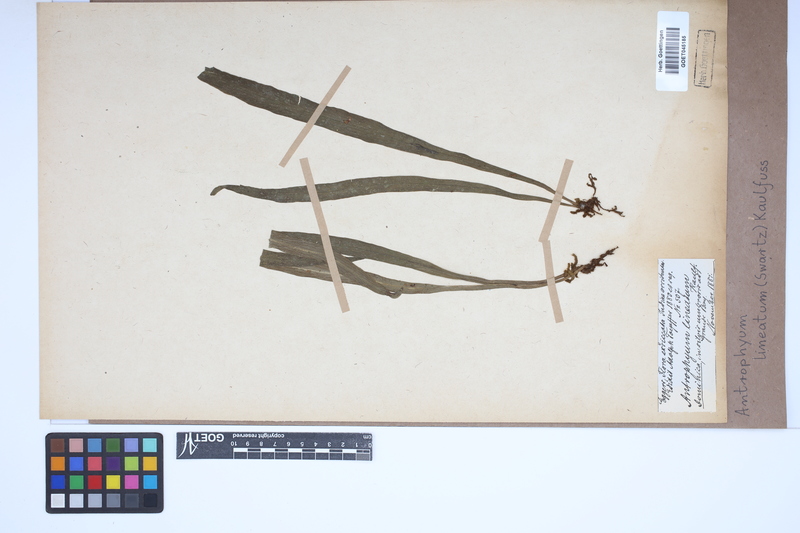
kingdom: Plantae
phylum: Tracheophyta
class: Polypodiopsida
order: Polypodiales
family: Pteridaceae
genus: Polytaenium
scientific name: Polytaenium lineatum
